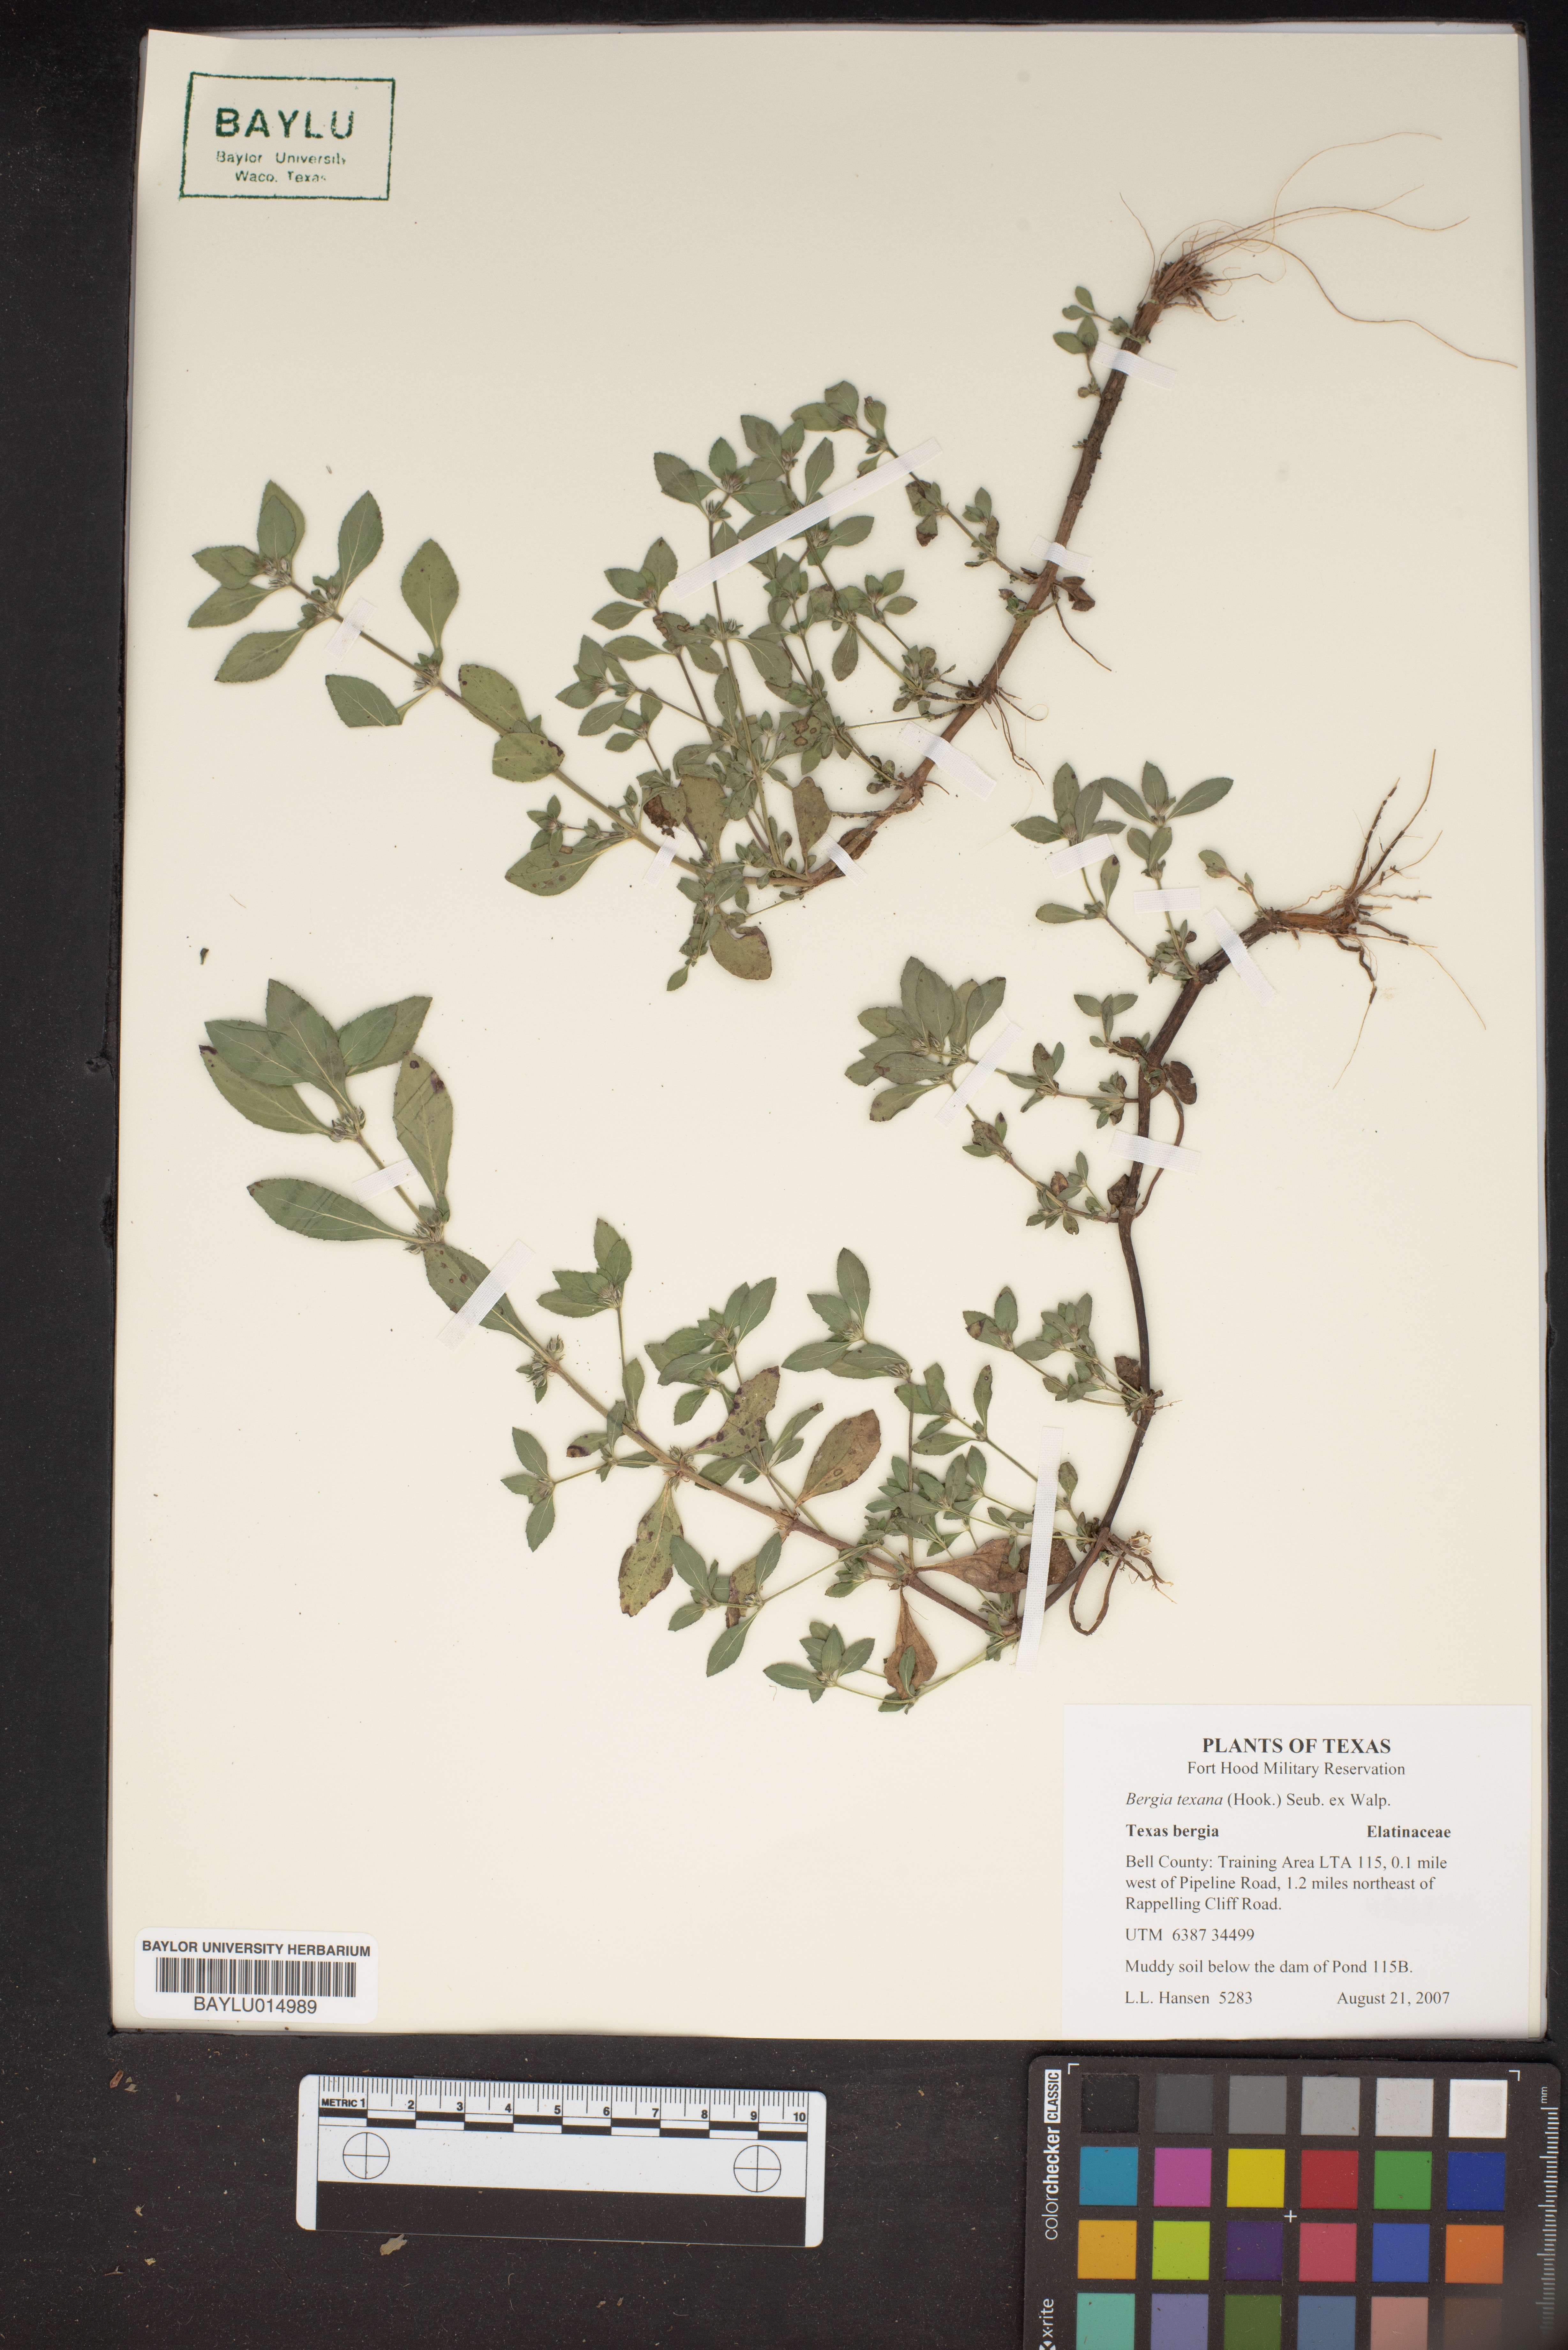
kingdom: Plantae
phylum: Tracheophyta
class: Magnoliopsida
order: Malpighiales
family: Elatinaceae
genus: Bergia
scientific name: Bergia texana
